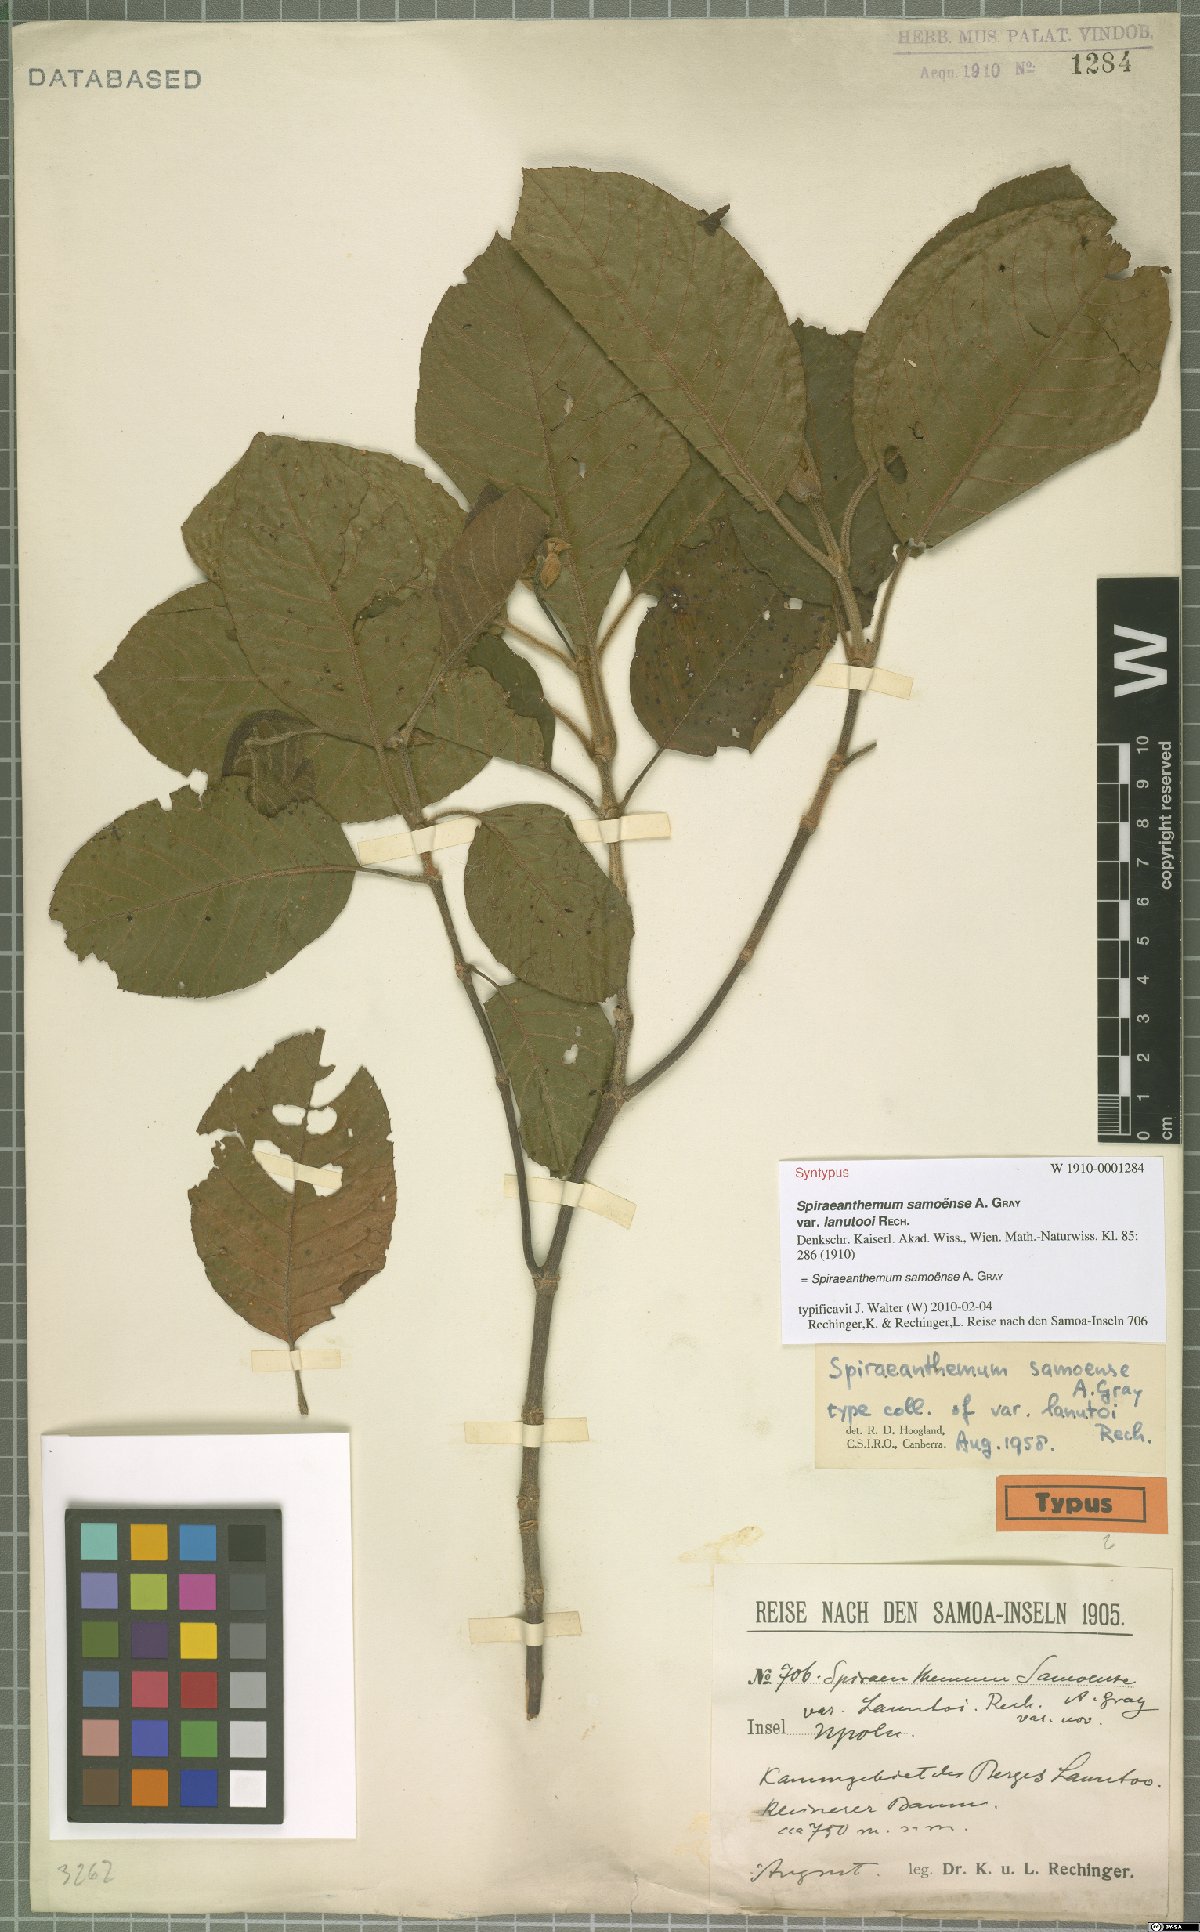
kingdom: Plantae
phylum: Tracheophyta
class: Magnoliopsida
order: Oxalidales
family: Cunoniaceae
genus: Spiraeanthemum
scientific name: Spiraeanthemum samoense
